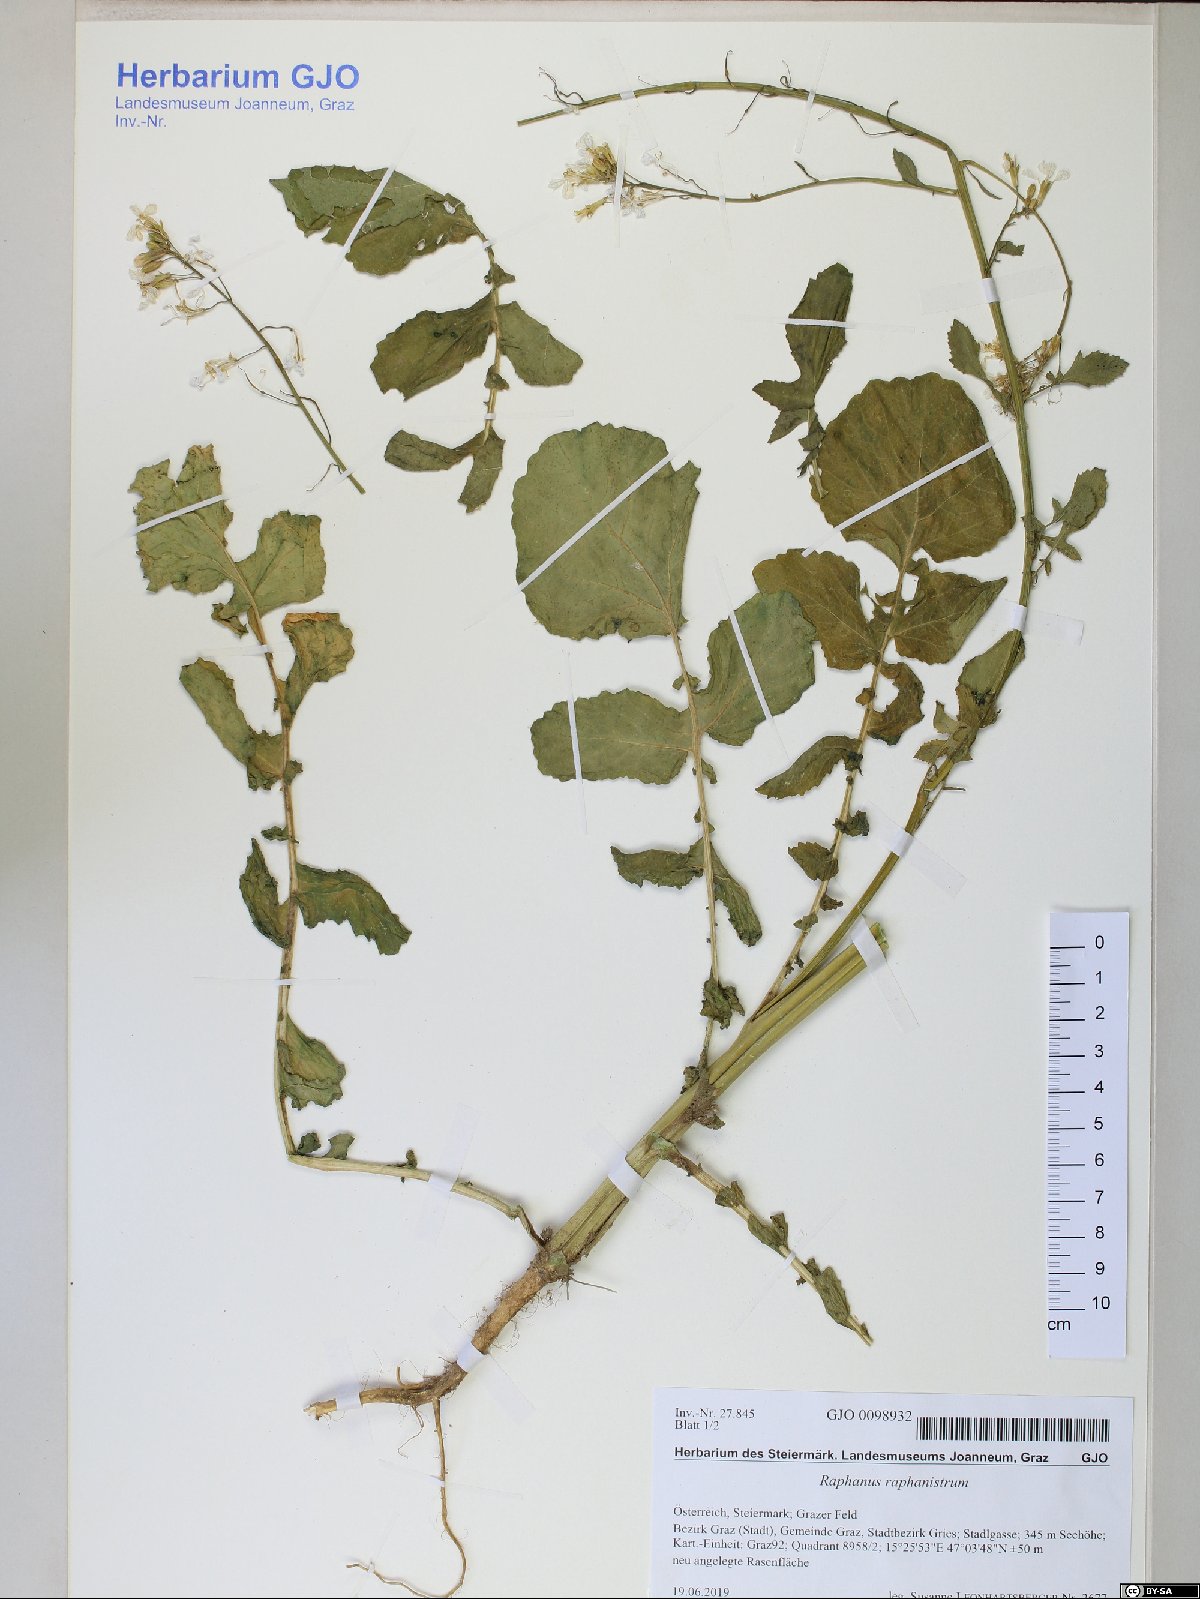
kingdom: Plantae
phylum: Tracheophyta
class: Magnoliopsida
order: Brassicales
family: Brassicaceae
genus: Raphanus
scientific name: Raphanus raphanistrum
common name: Wild radish
